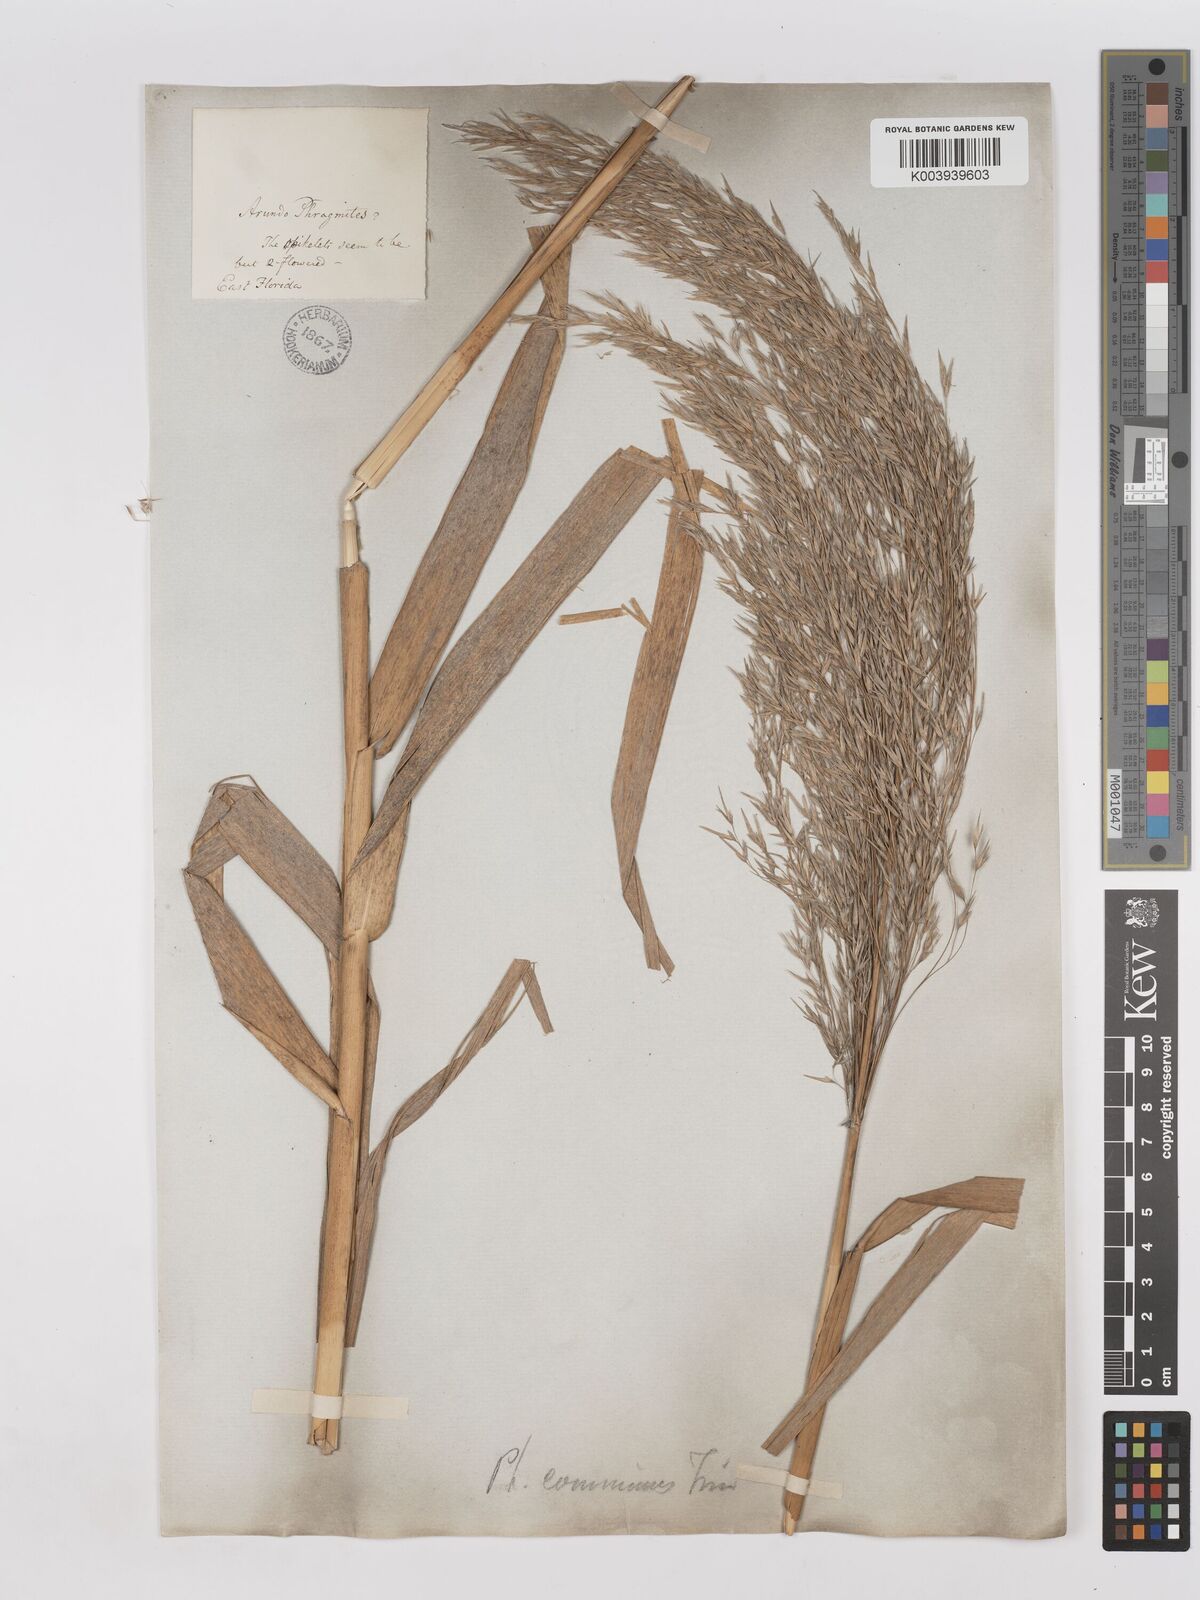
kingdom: Plantae
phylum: Tracheophyta
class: Liliopsida
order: Poales
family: Poaceae
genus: Phragmites
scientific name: Phragmites australis
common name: Common reed
